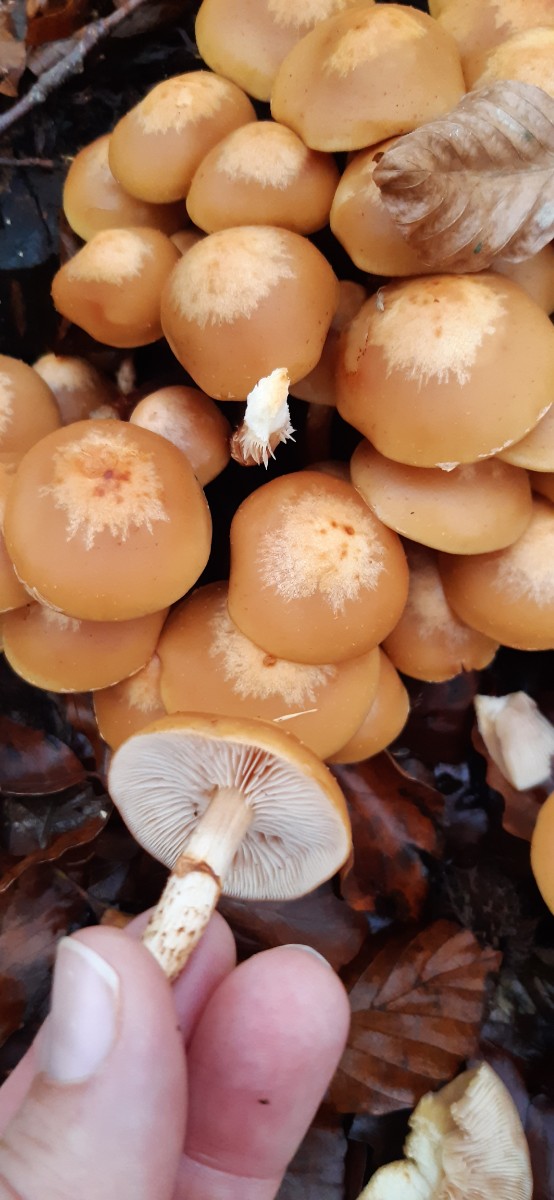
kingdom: Fungi
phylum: Basidiomycota
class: Agaricomycetes
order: Agaricales
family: Strophariaceae
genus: Kuehneromyces
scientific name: Kuehneromyces mutabilis
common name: foranderlig skælhat
